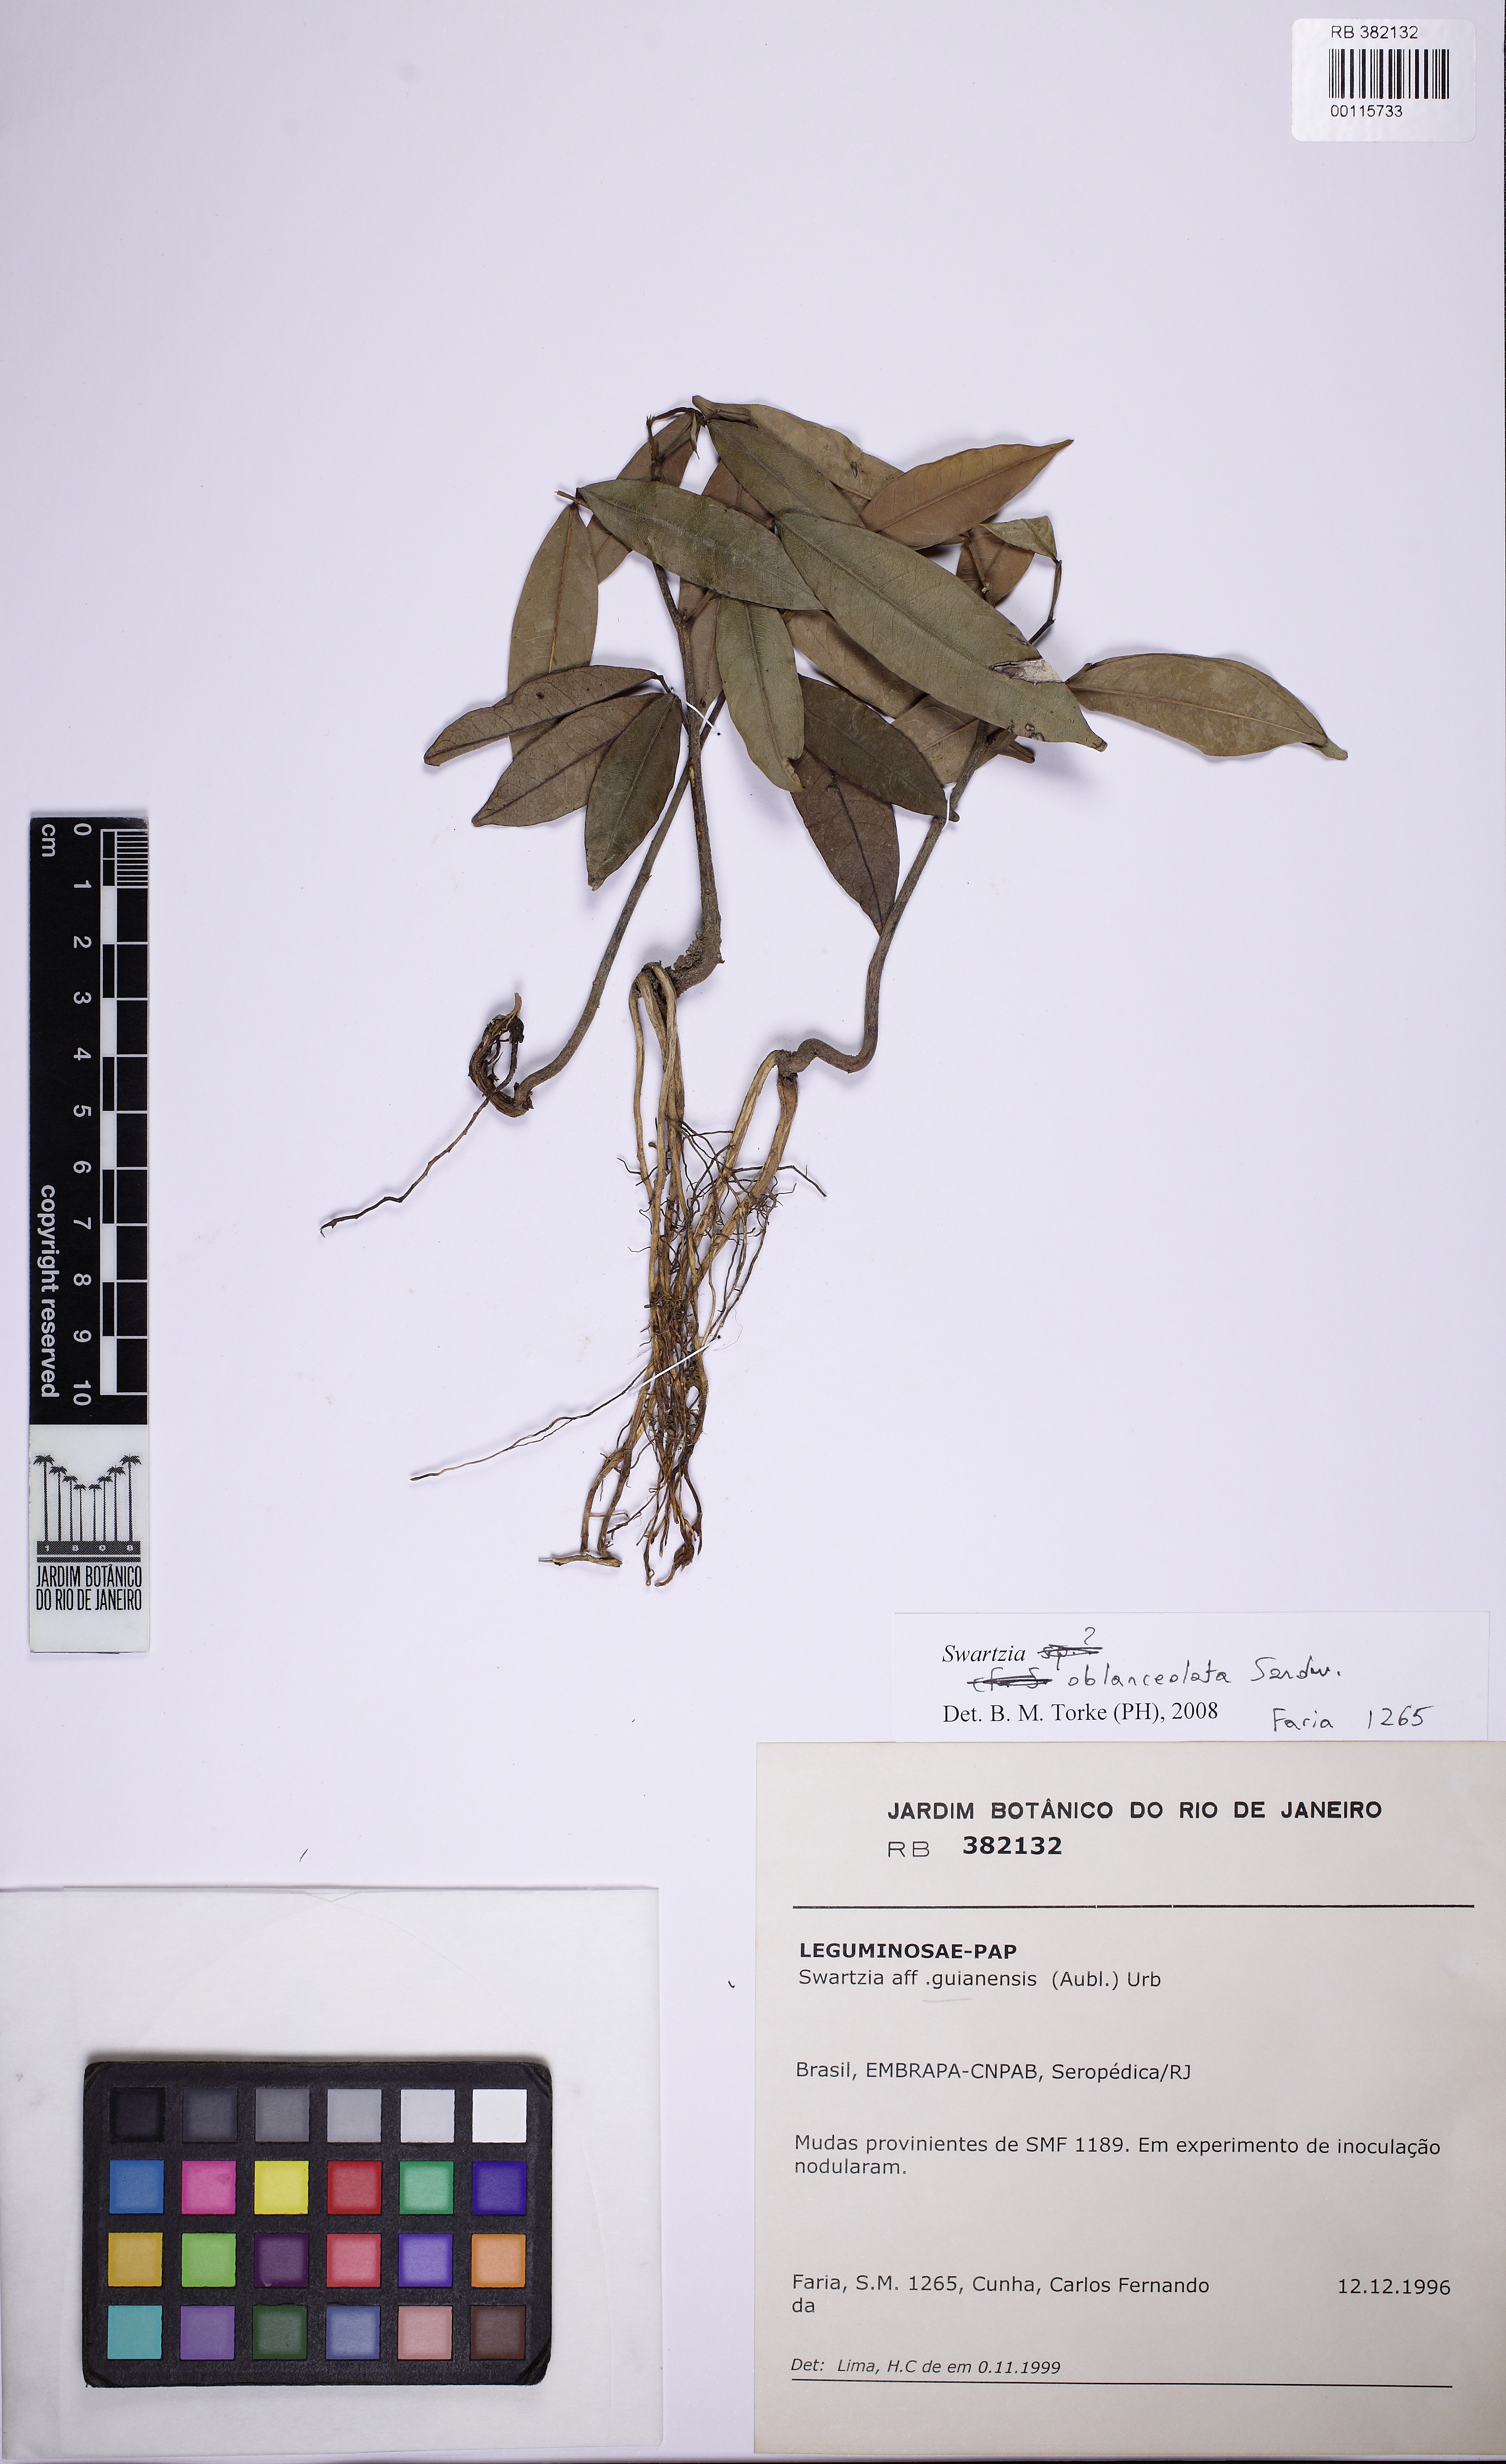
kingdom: Plantae
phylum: Tracheophyta
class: Magnoliopsida
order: Fabales
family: Fabaceae
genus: Swartzia
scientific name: Swartzia oblanceolata
